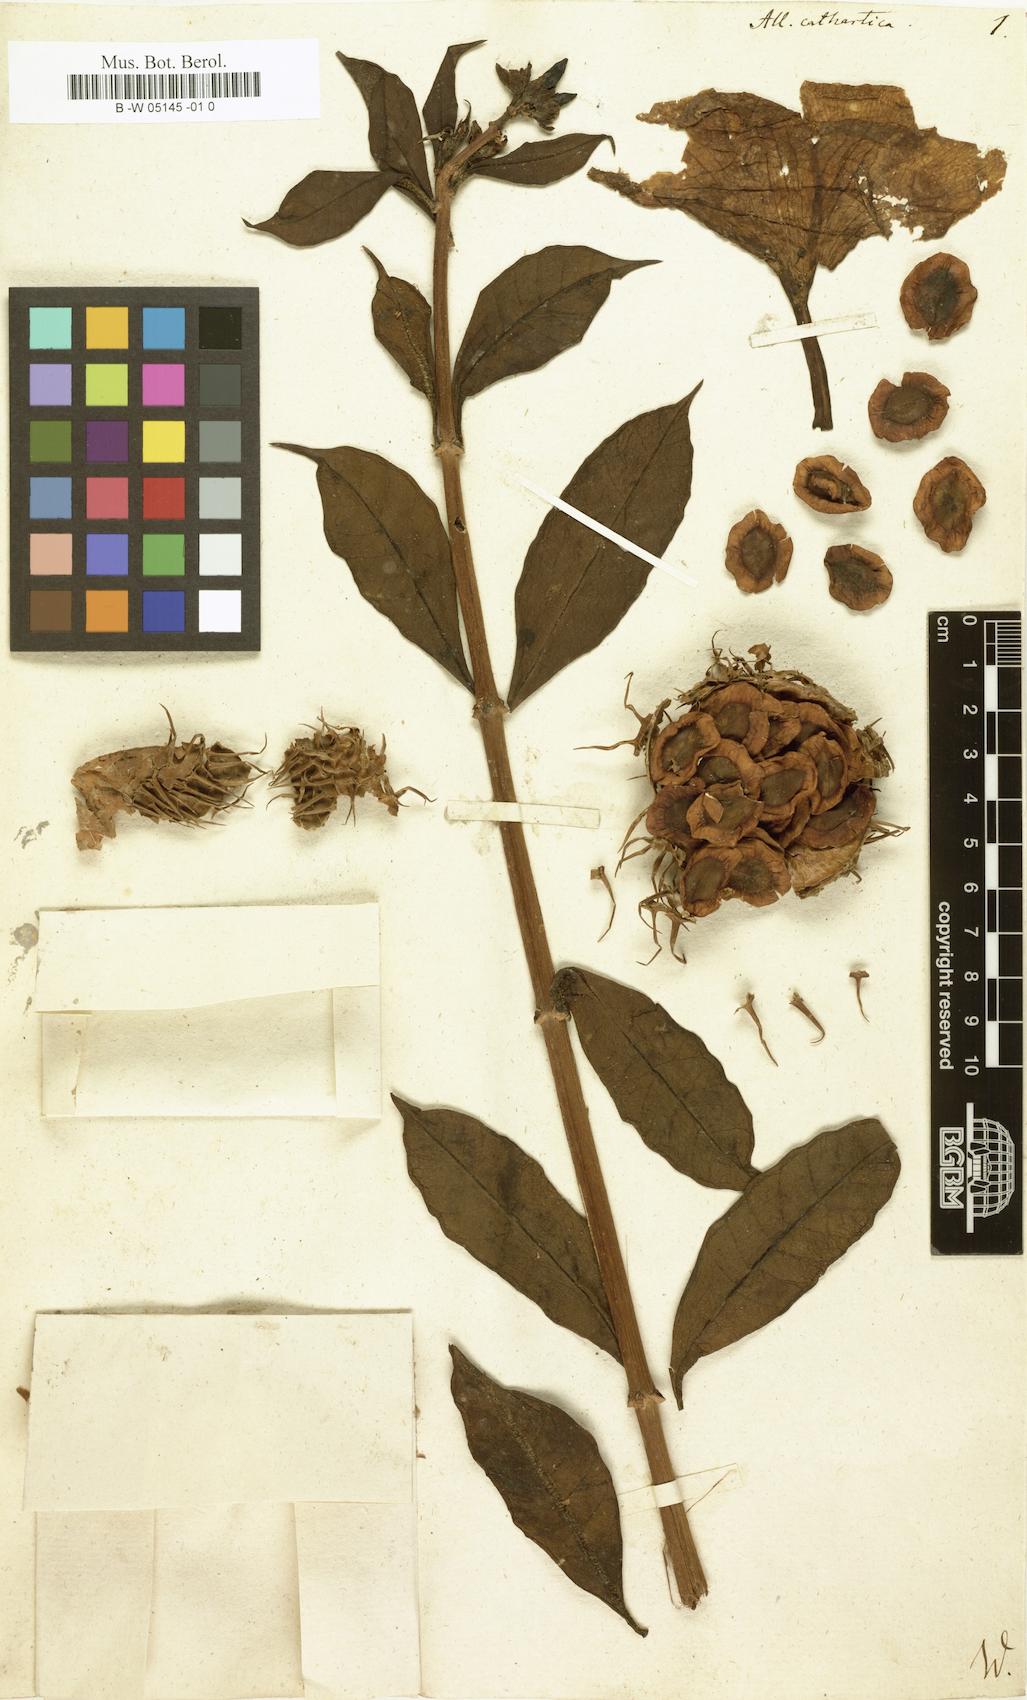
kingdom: Plantae
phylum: Tracheophyta
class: Magnoliopsida
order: Gentianales
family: Apocynaceae
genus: Allamanda
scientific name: Allamanda cathartica
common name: Golden trumpet
